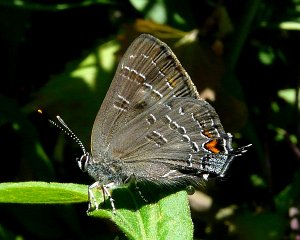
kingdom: Animalia
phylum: Arthropoda
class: Insecta
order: Lepidoptera
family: Lycaenidae
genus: Satyrium
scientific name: Satyrium calanus
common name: Banded Hairstreak
